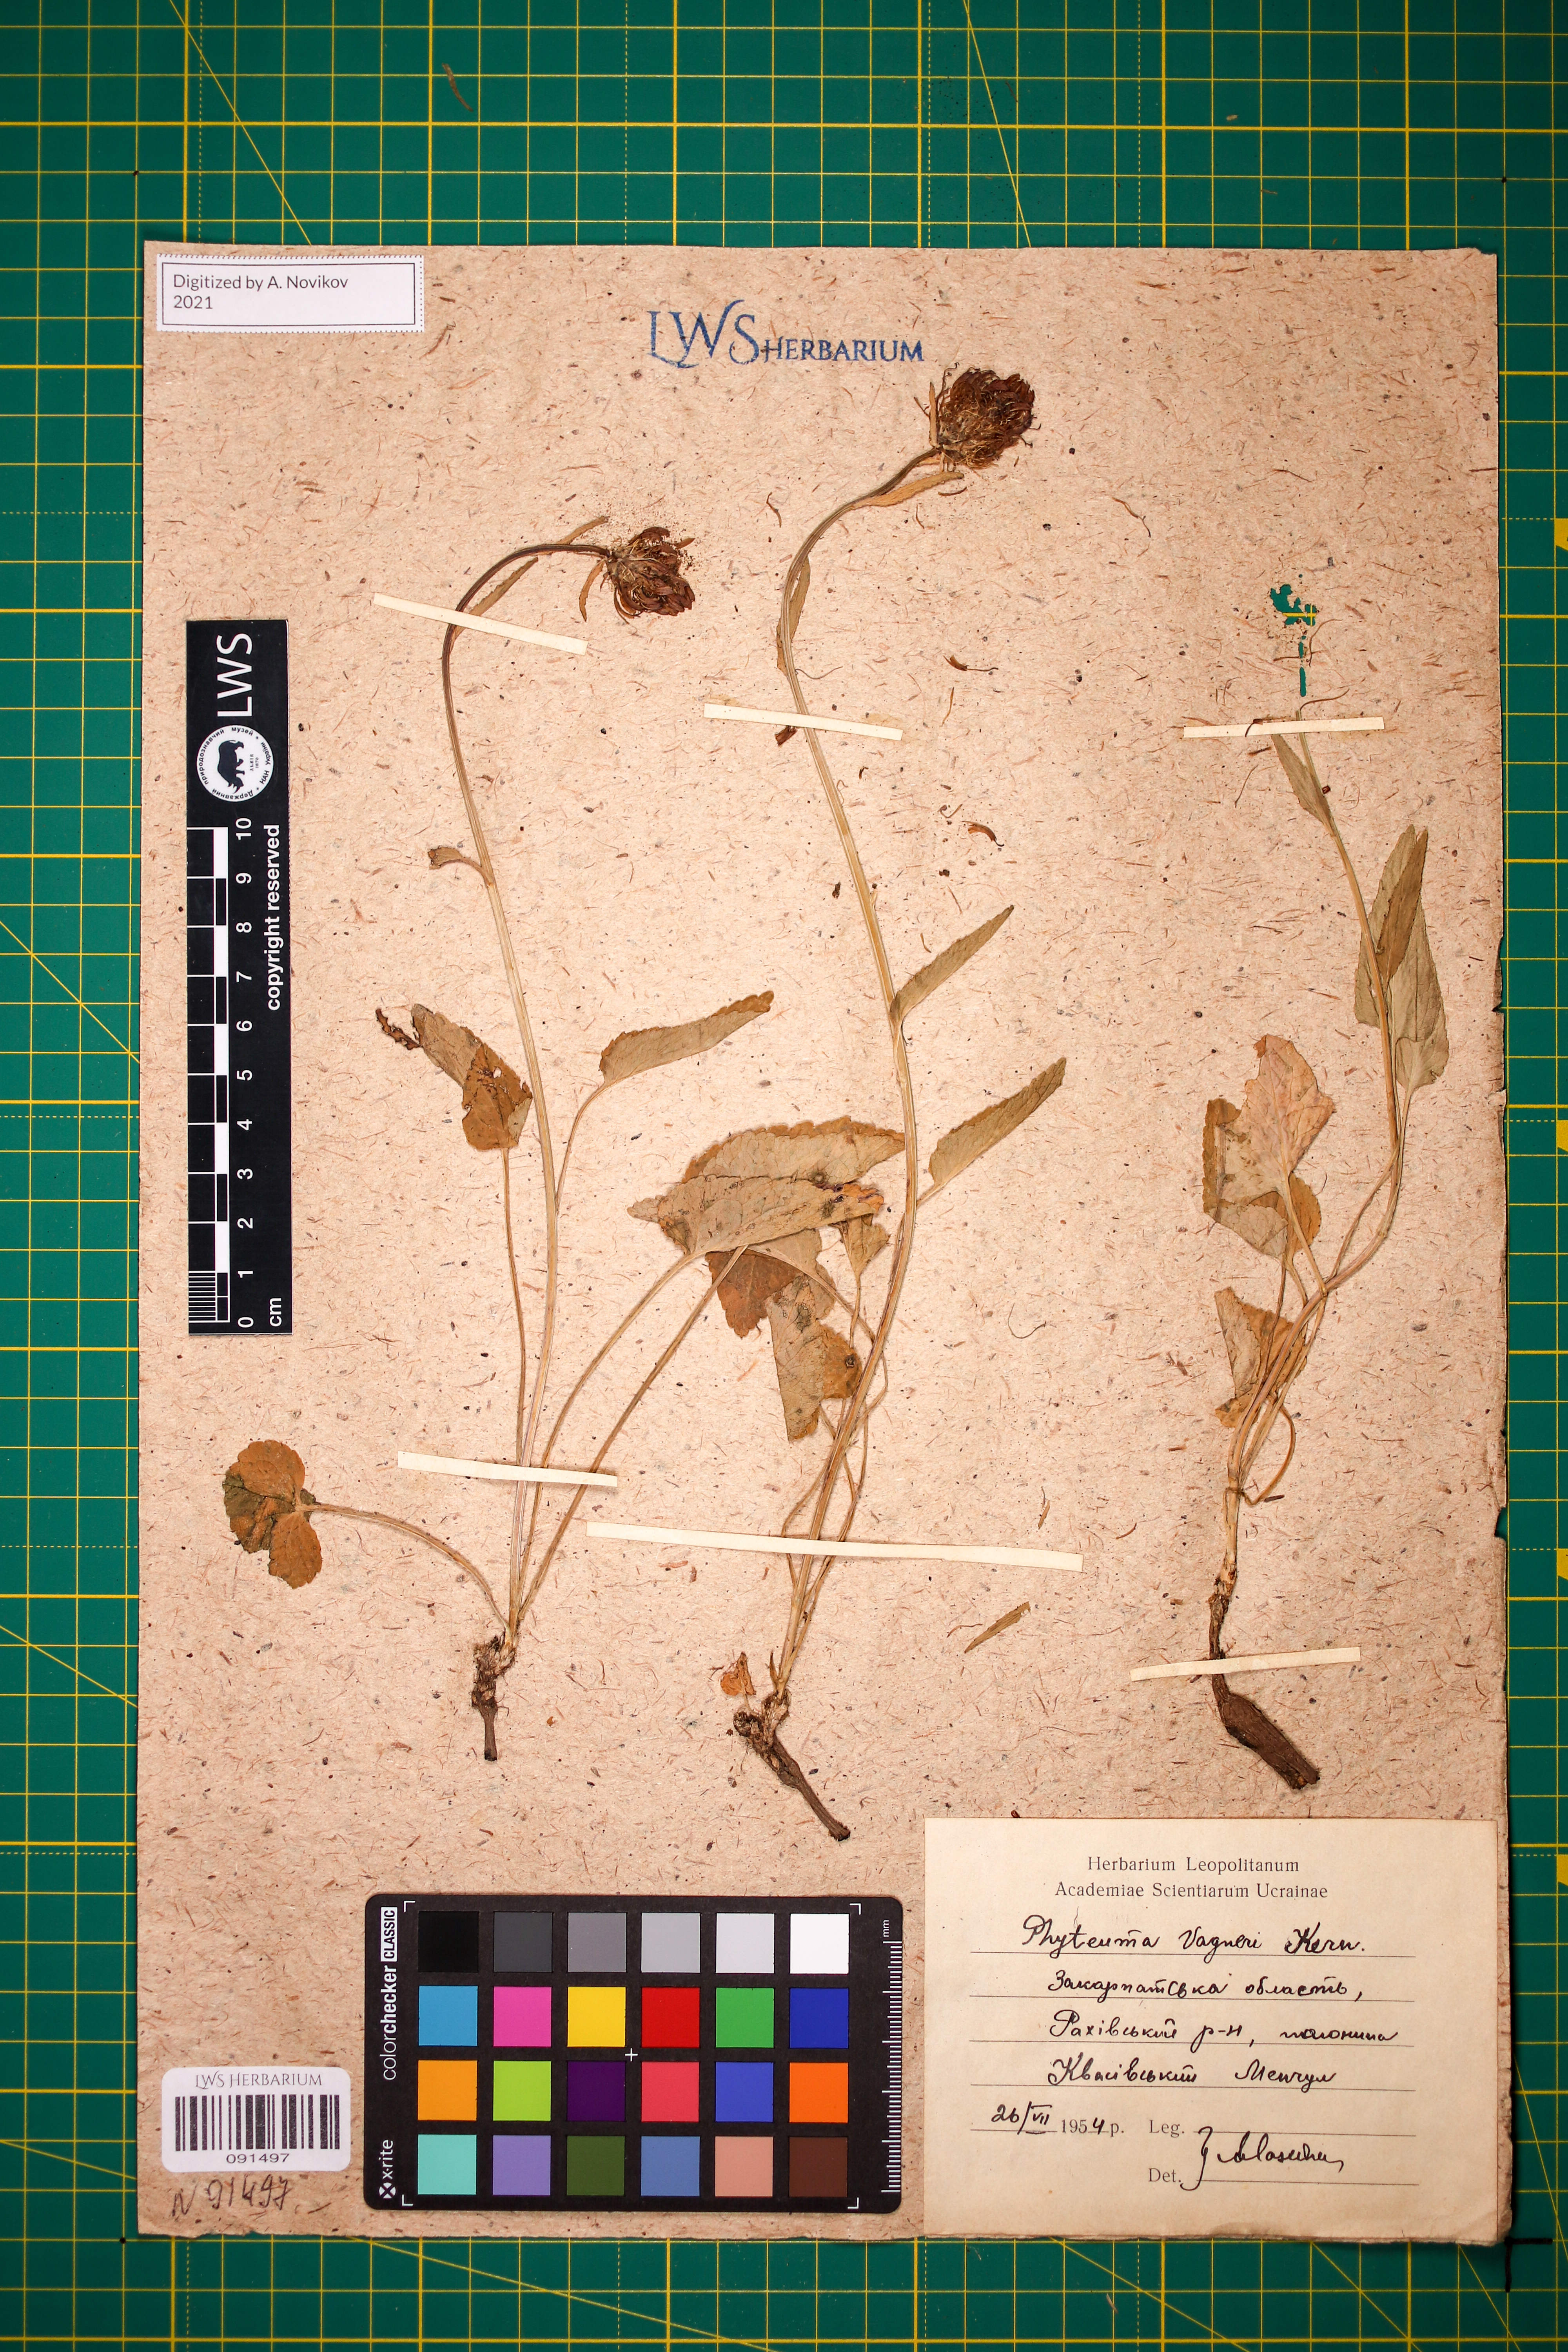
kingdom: Plantae
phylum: Tracheophyta
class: Magnoliopsida
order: Asterales
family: Campanulaceae
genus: Phyteuma
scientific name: Phyteuma vagneri
